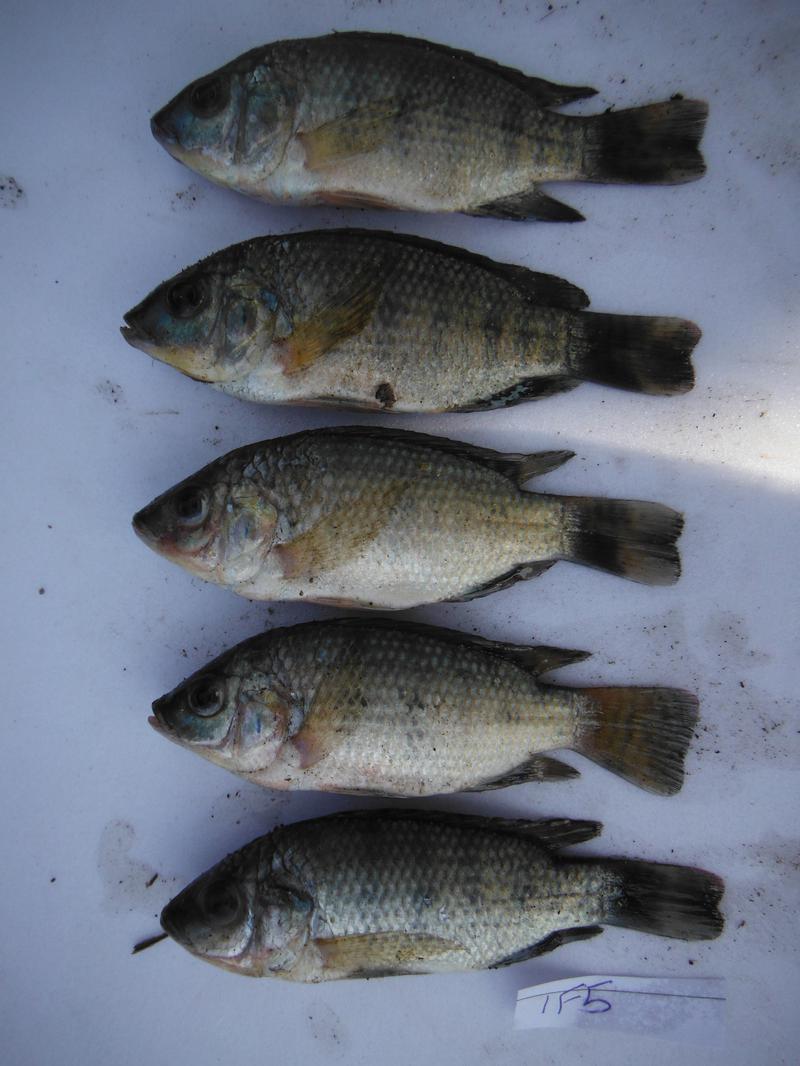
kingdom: Animalia
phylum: Chordata
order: Perciformes
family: Cichlidae
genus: Oreochromis
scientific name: Oreochromis urolepis
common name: Wami tilapia
